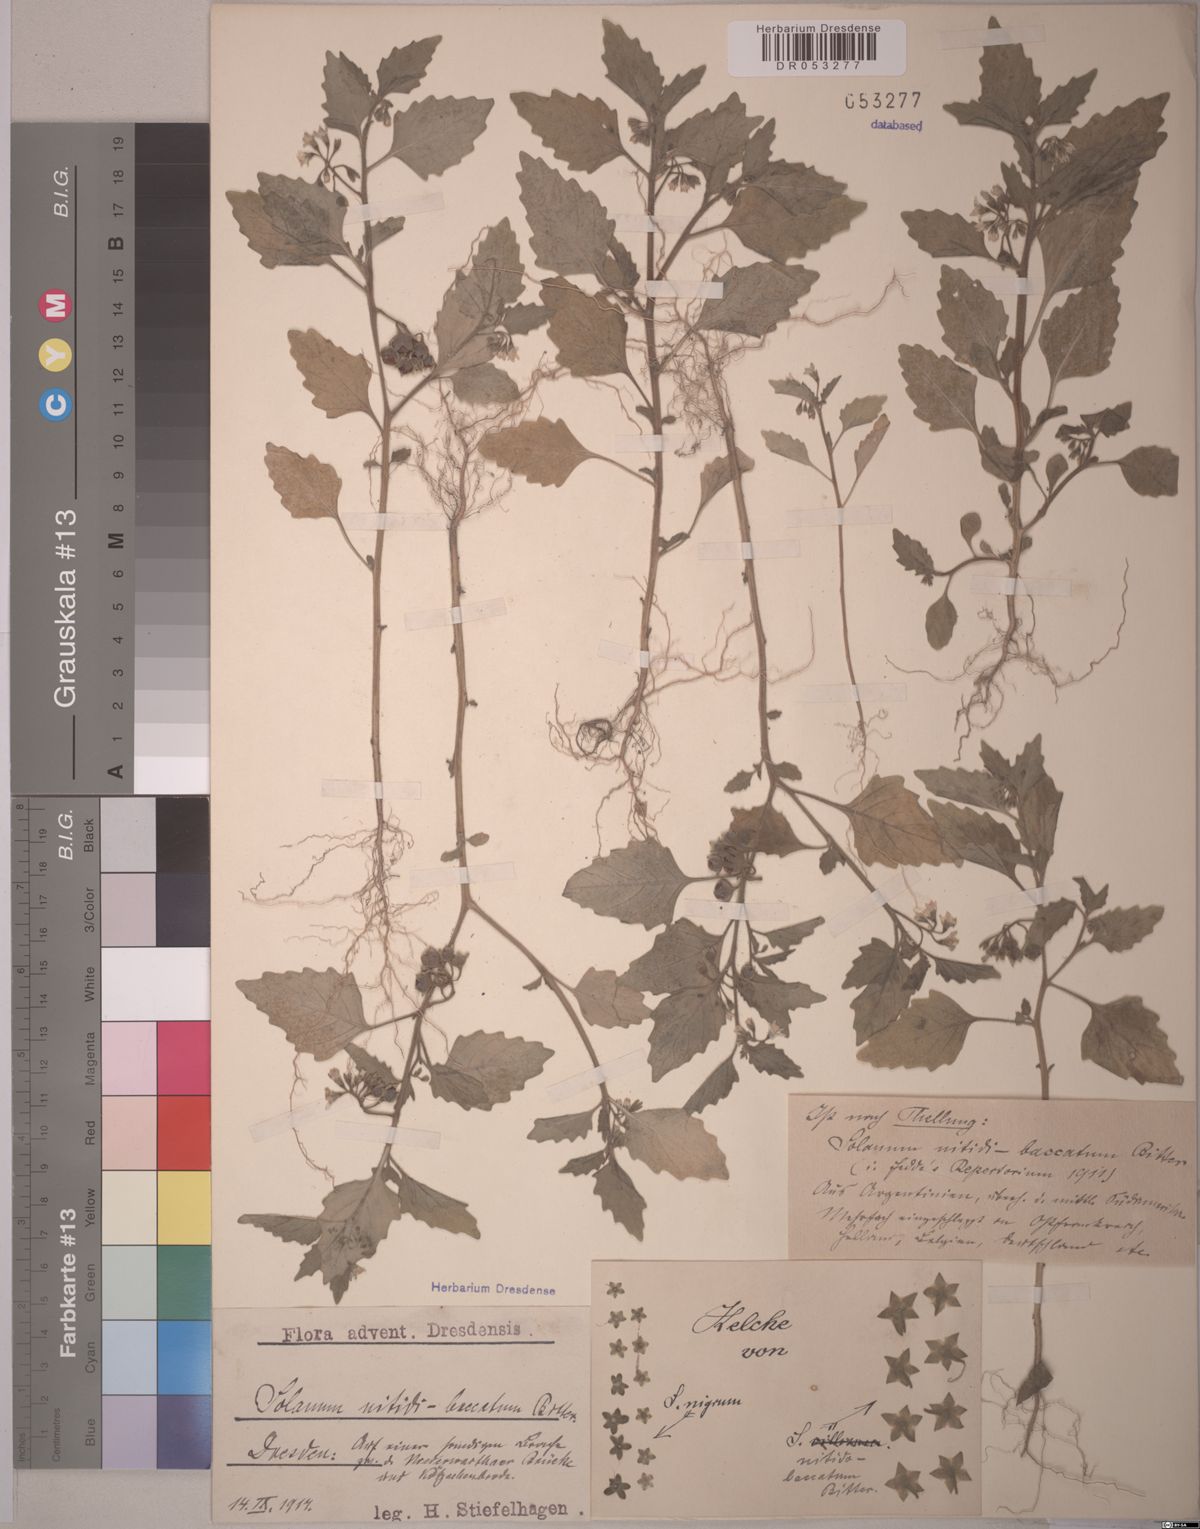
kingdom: Plantae
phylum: Tracheophyta
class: Magnoliopsida
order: Solanales
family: Solanaceae
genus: Solanum
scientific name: Solanum nitidibaccatum
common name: Hairy nightshade
